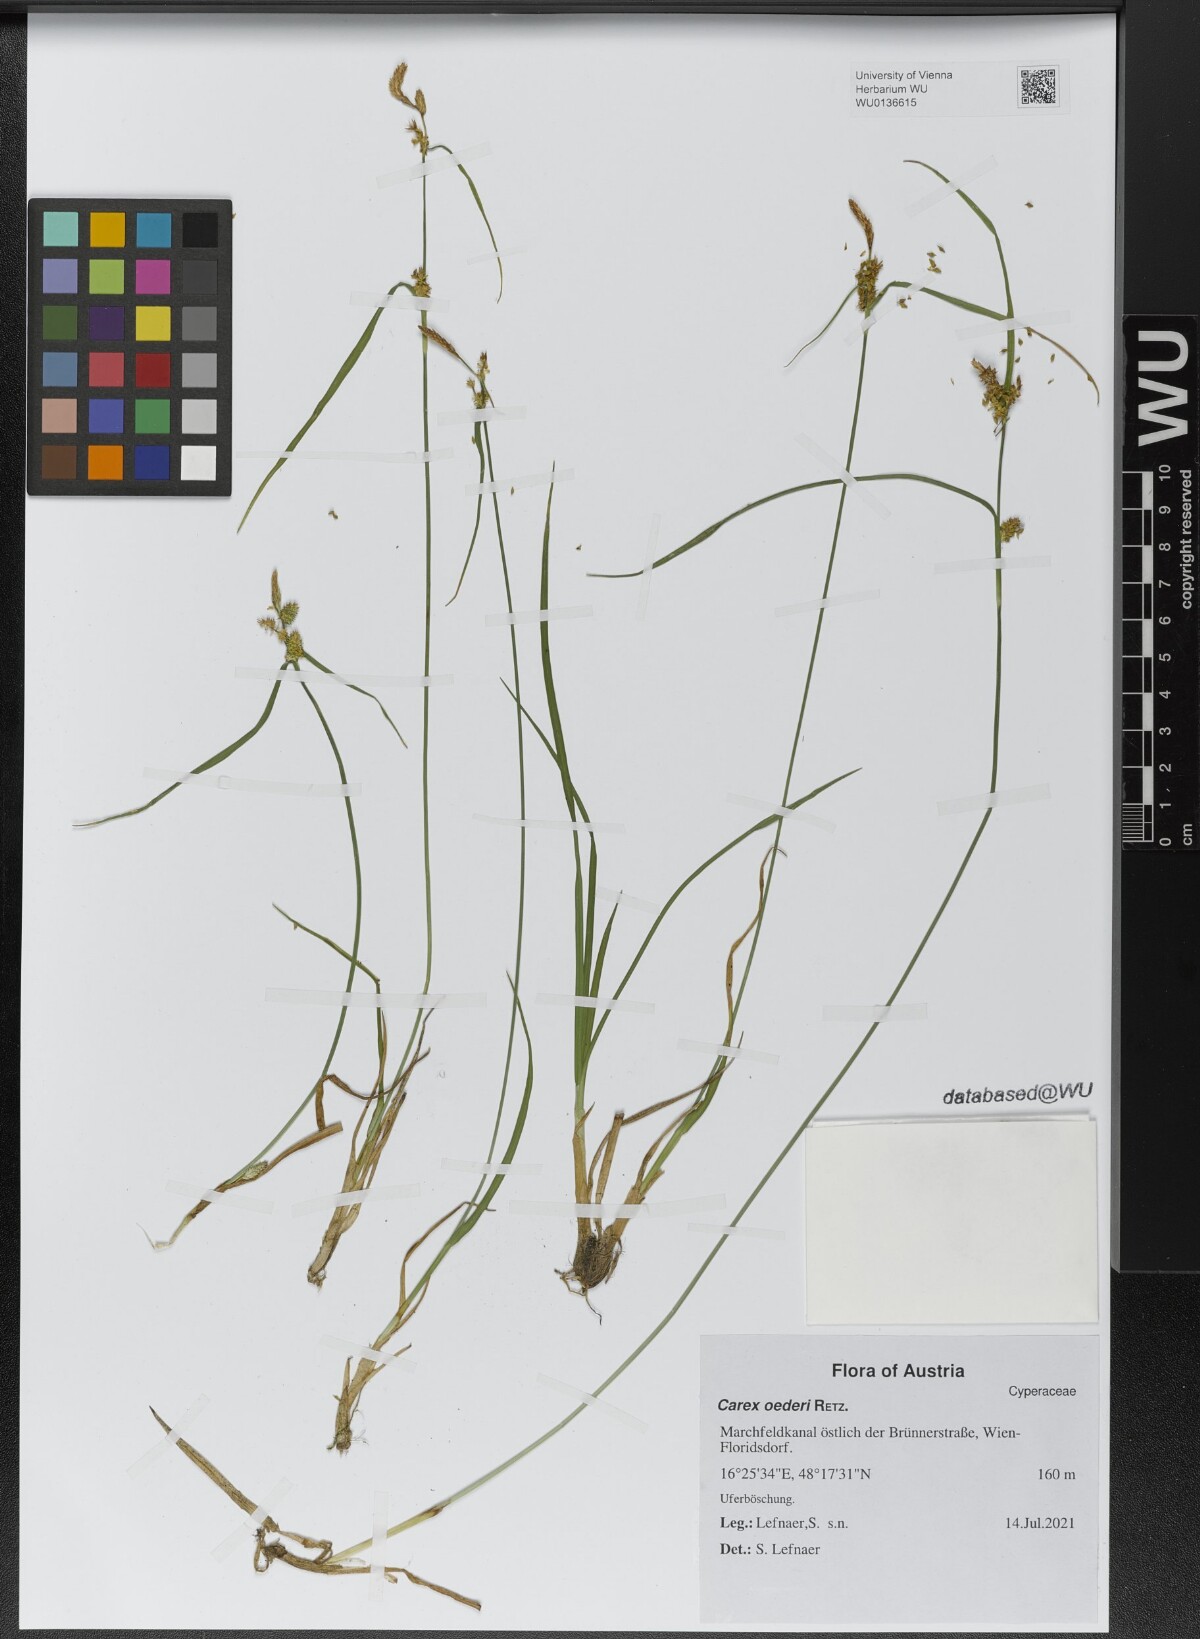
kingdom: Plantae
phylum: Tracheophyta
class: Liliopsida
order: Poales
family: Cyperaceae
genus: Carex
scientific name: Carex oederi
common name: Common & small-fruited yellow-sedge
